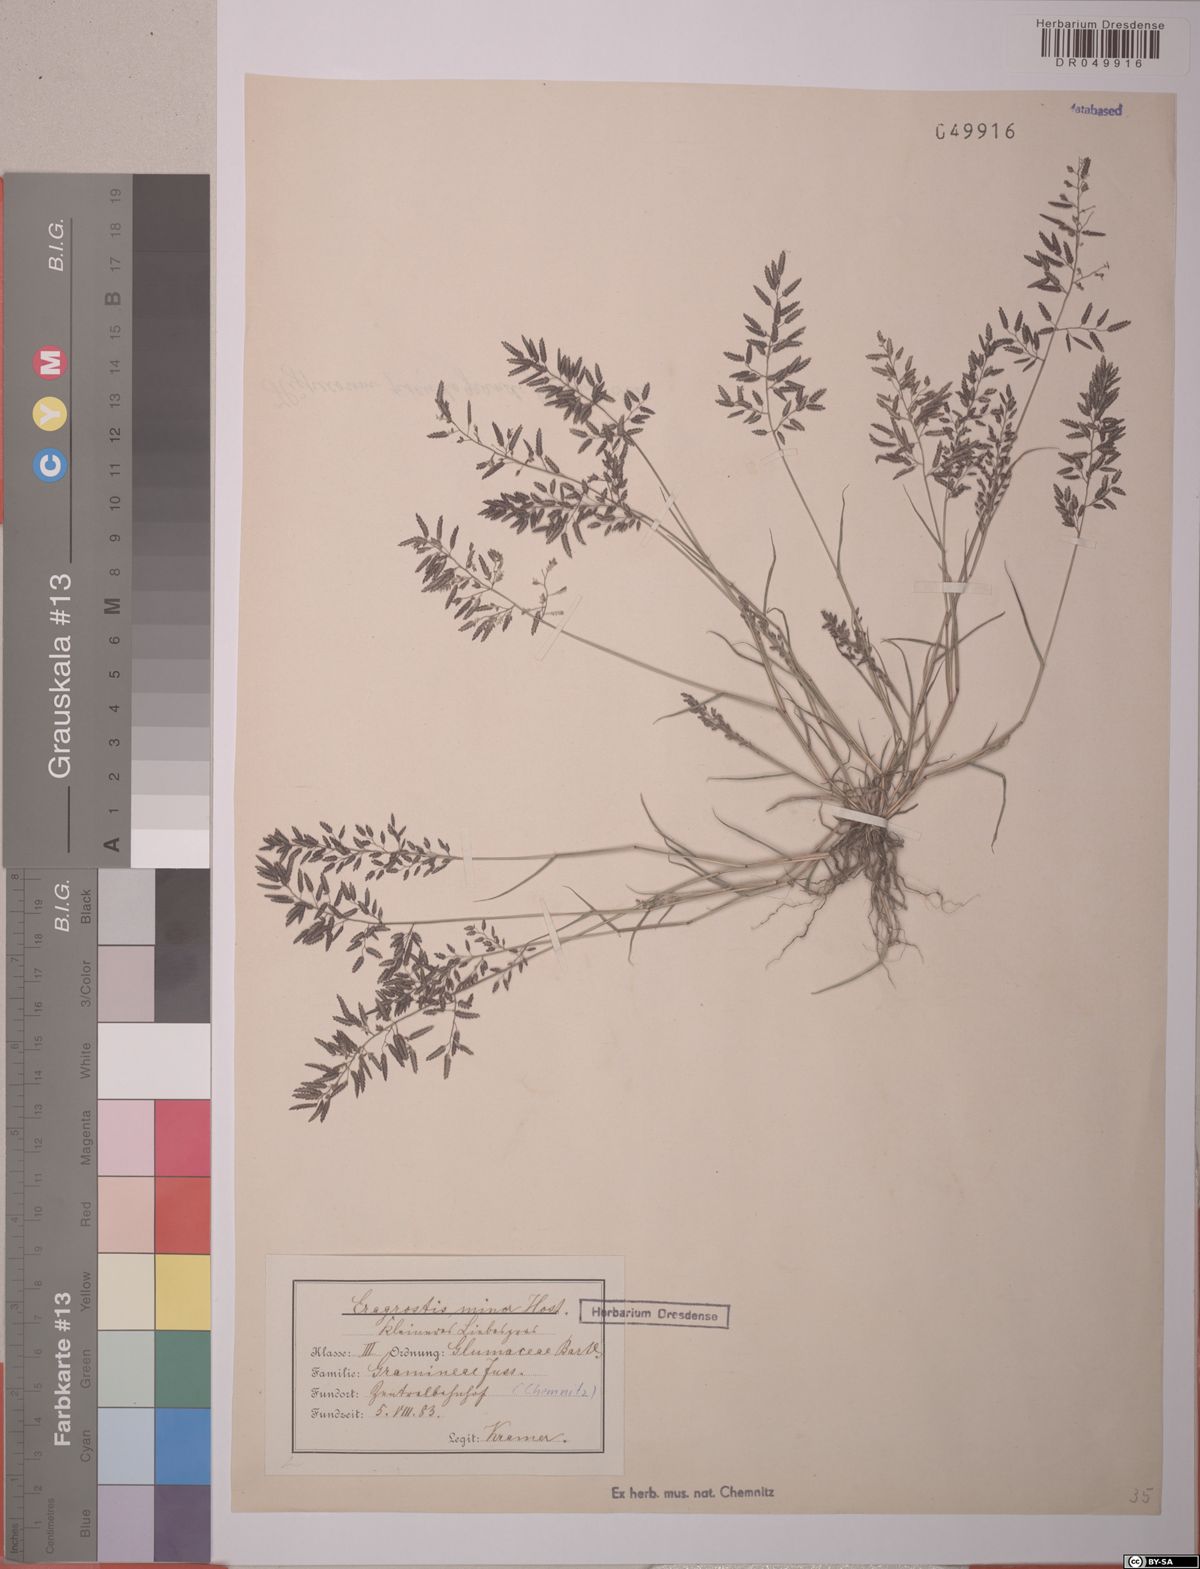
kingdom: Plantae
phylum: Tracheophyta
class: Liliopsida
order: Poales
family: Poaceae
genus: Eragrostis
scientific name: Eragrostis minor
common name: Small love-grass
